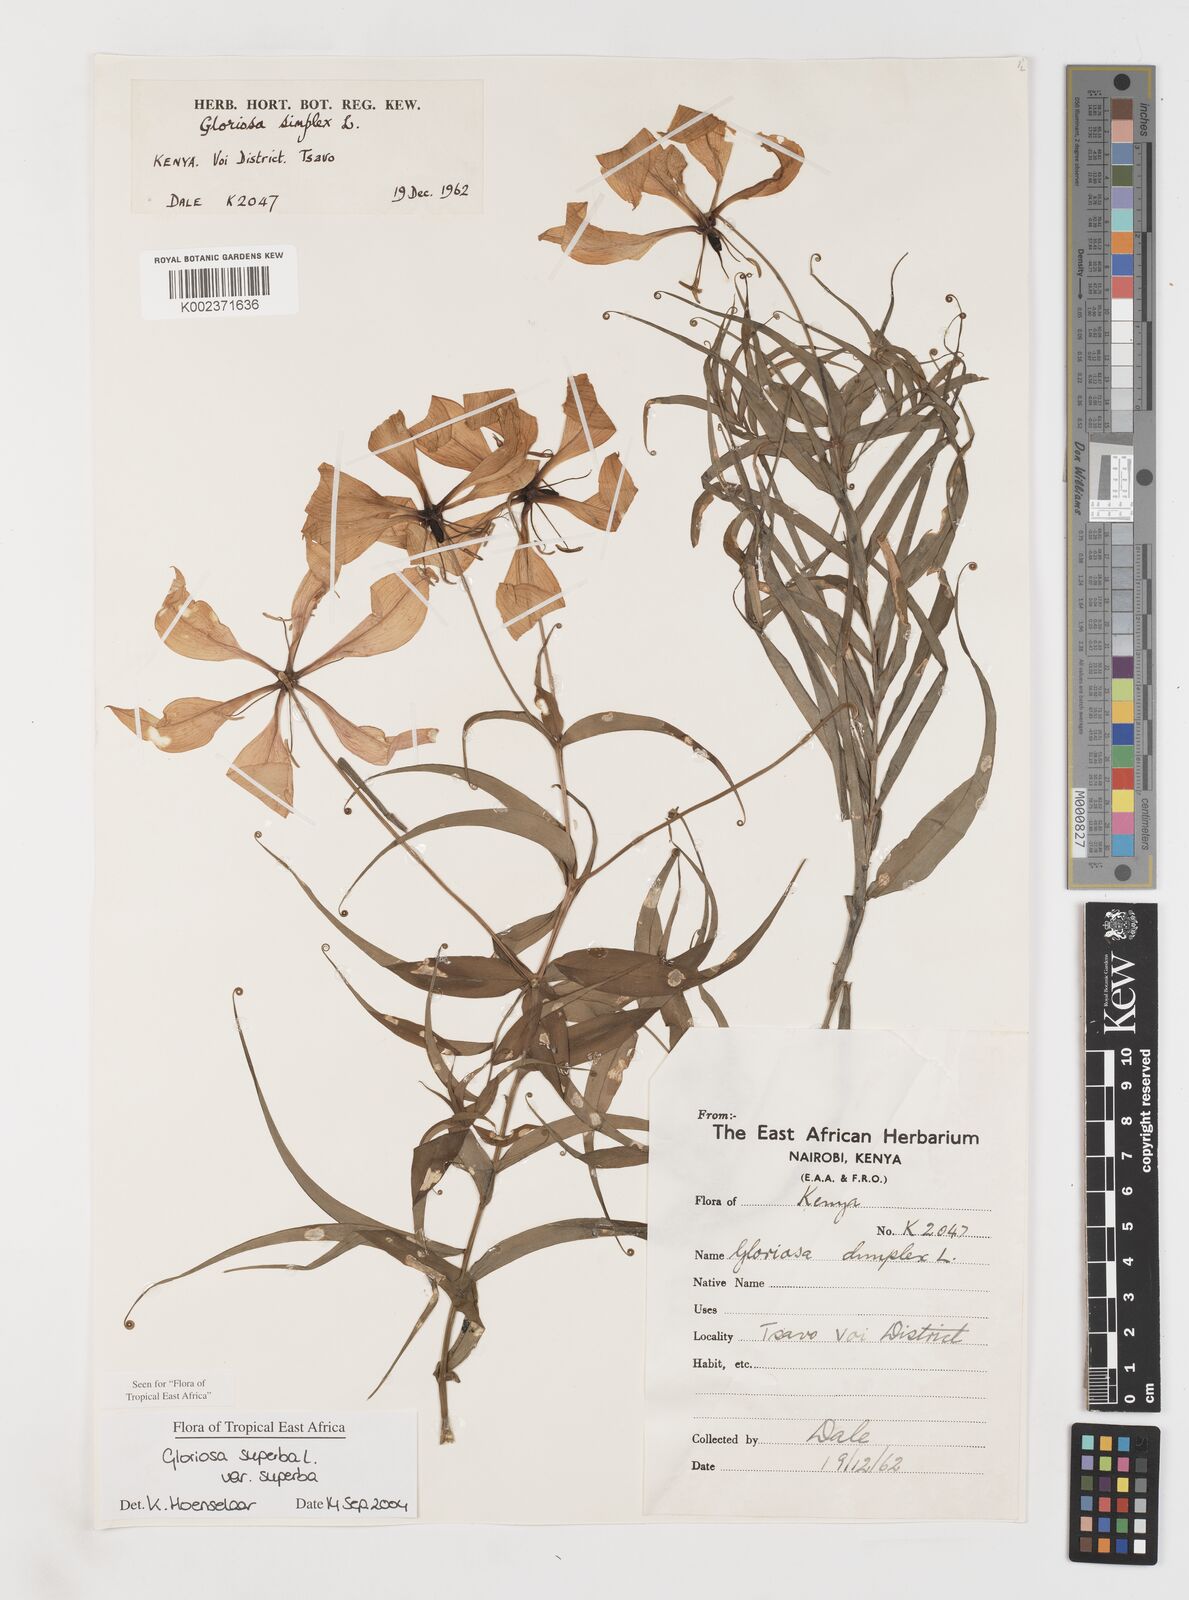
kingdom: Plantae
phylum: Tracheophyta
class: Liliopsida
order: Liliales
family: Colchicaceae
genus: Gloriosa
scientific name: Gloriosa simplex
